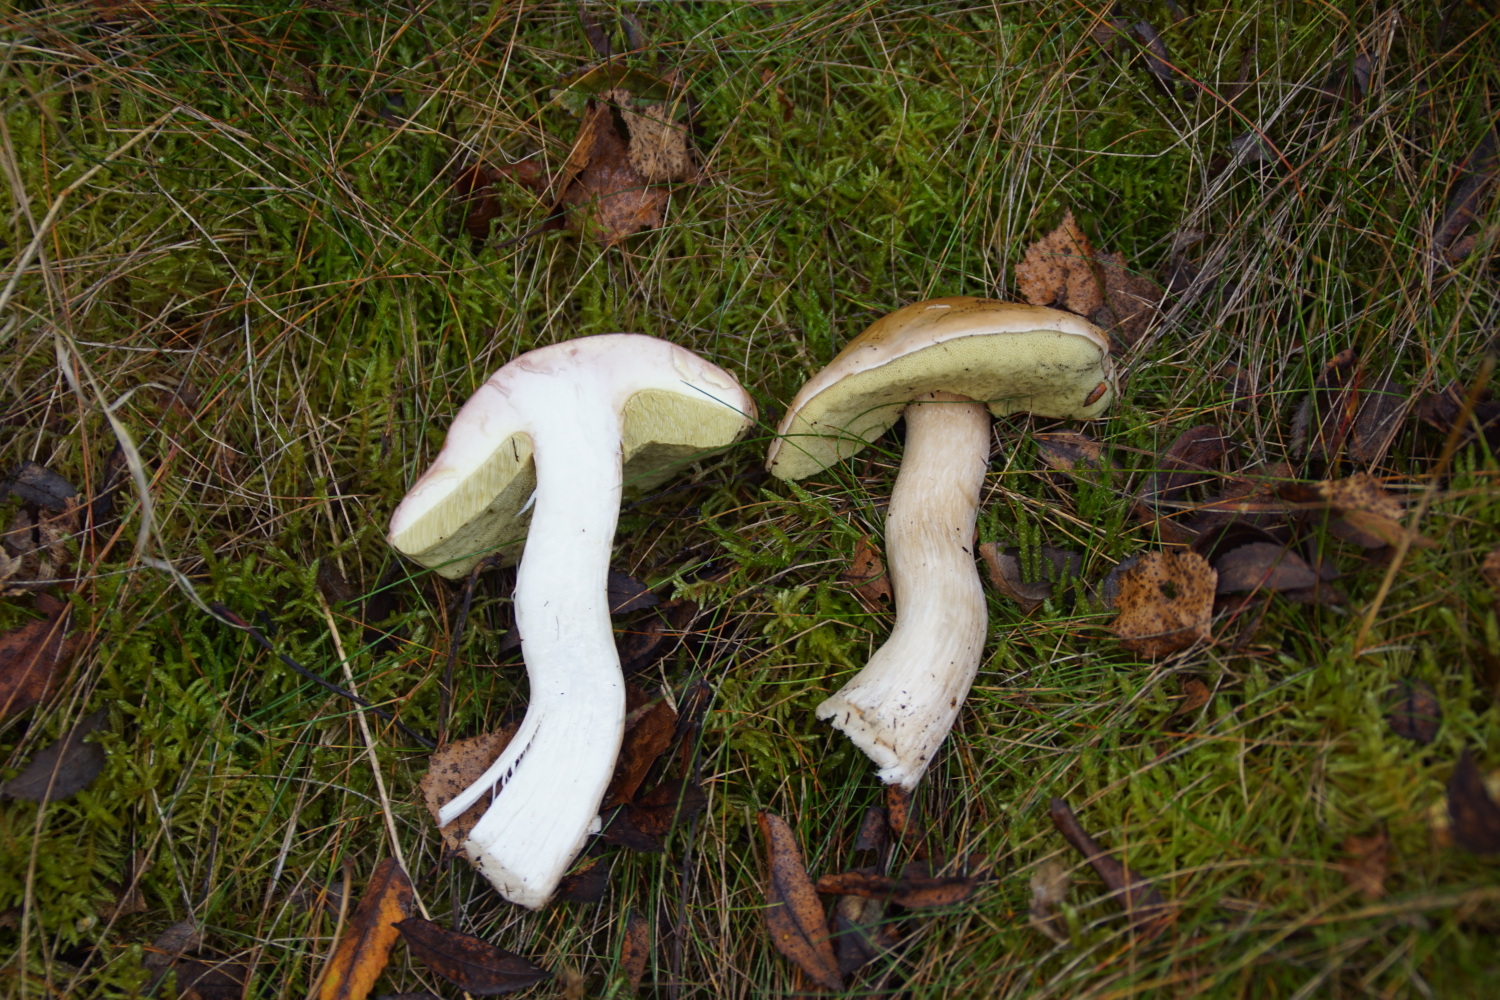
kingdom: Fungi
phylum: Basidiomycota
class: Agaricomycetes
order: Boletales
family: Boletaceae
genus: Imleria
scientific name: Imleria badia
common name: brunstokket rørhat
